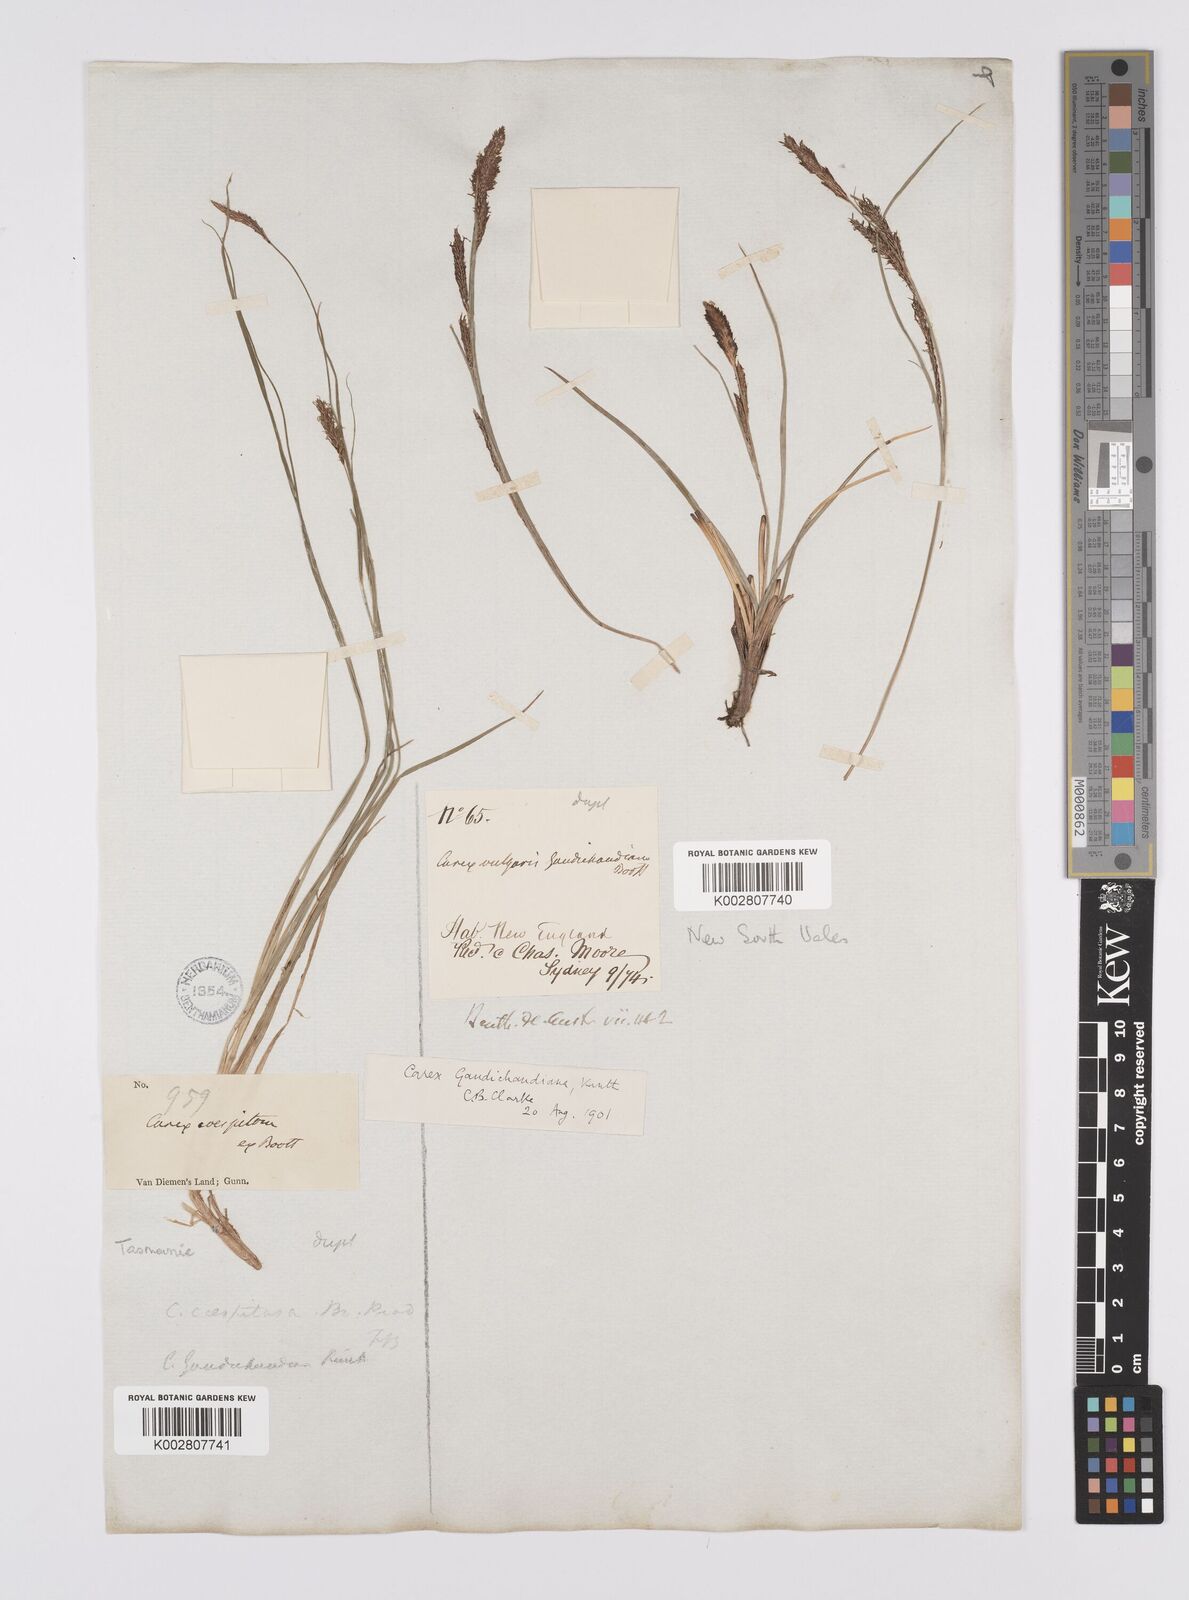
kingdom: Plantae
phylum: Tracheophyta
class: Liliopsida
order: Poales
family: Cyperaceae
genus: Carex
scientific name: Carex gaudichaudiana
